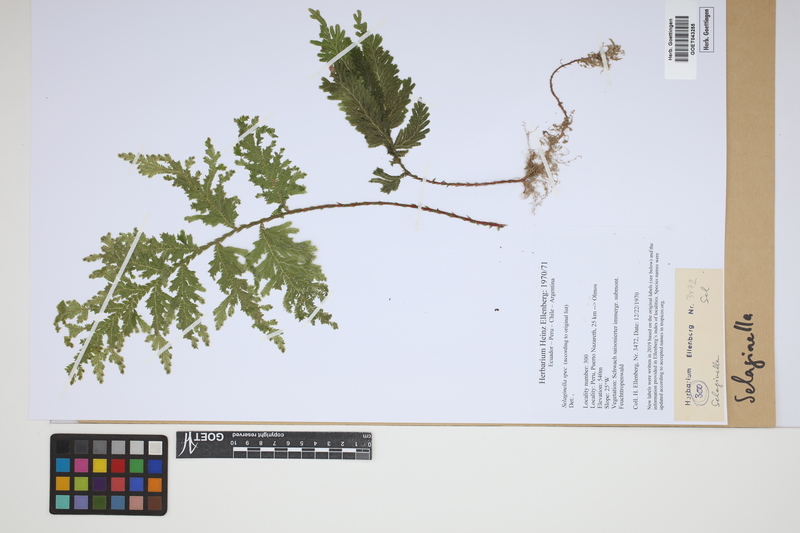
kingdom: Plantae
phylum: Tracheophyta
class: Lycopodiopsida
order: Selaginellales
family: Selaginellaceae
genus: Selaginella
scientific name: Selaginella
